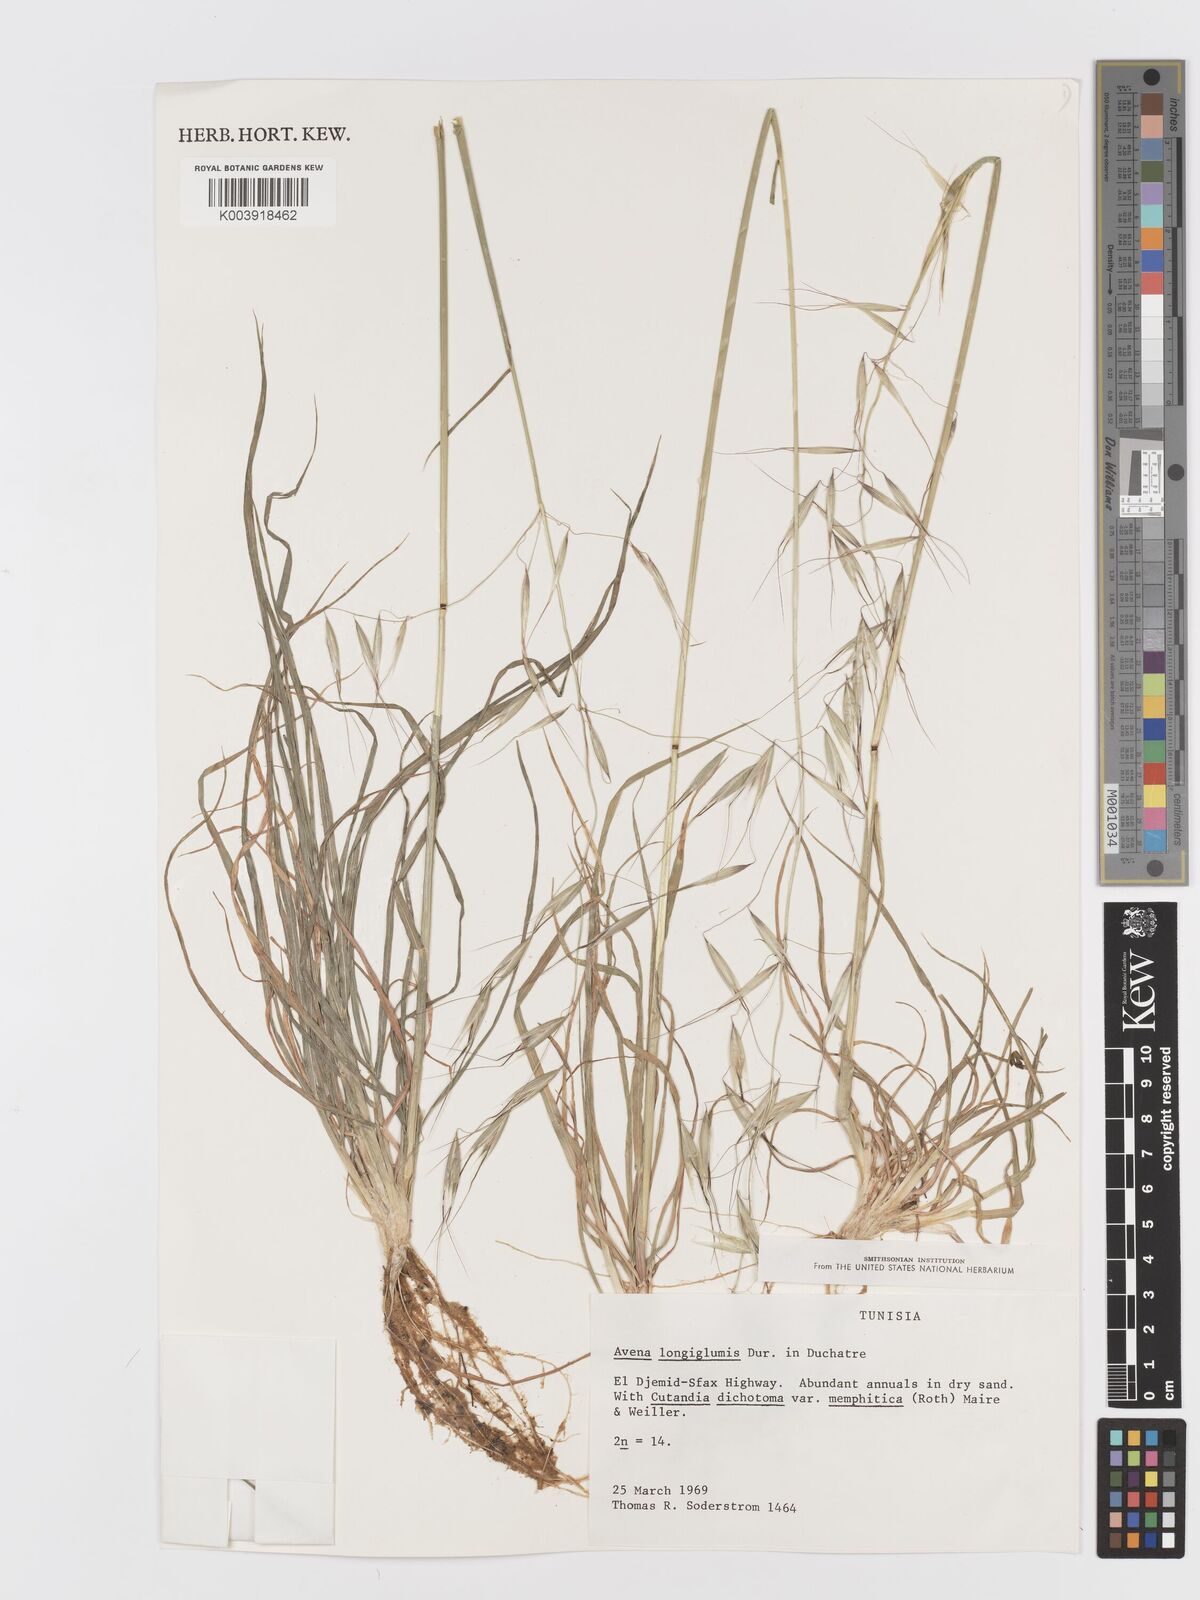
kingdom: Plantae
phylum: Tracheophyta
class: Liliopsida
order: Poales
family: Poaceae
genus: Avena
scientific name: Avena longiglumis
